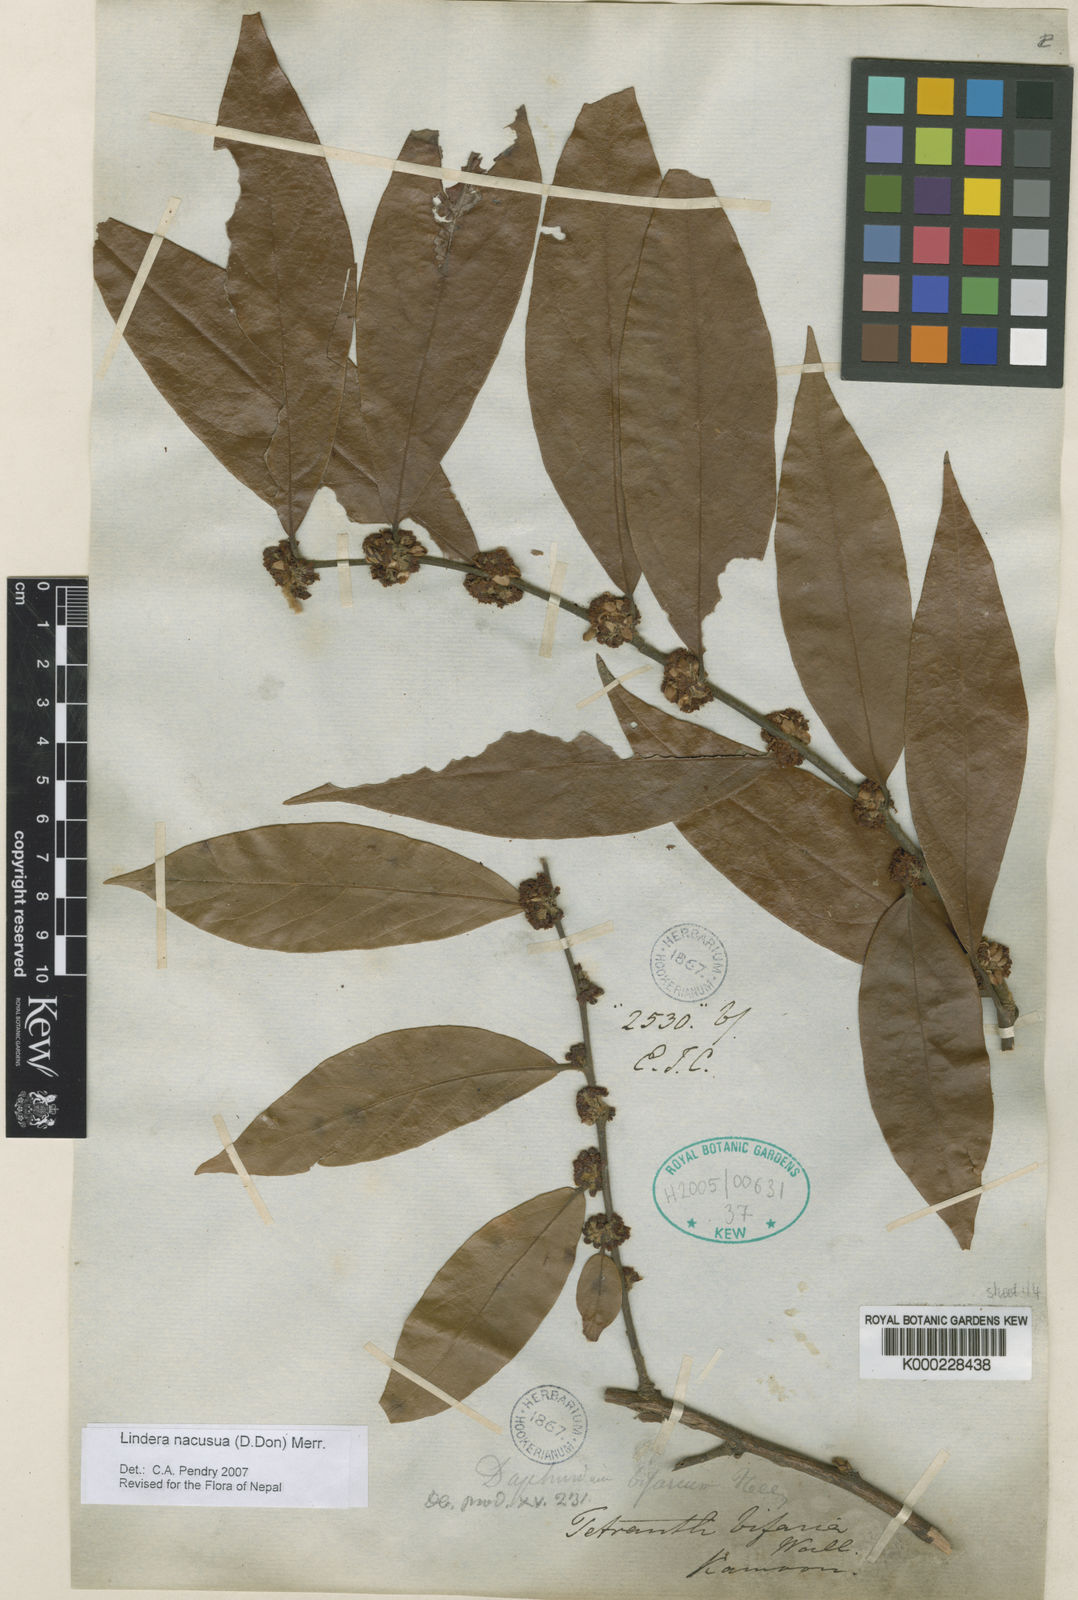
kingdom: Plantae
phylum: Tracheophyta
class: Magnoliopsida
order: Laurales
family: Lauraceae
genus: Lindera
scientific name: Lindera nacusua
